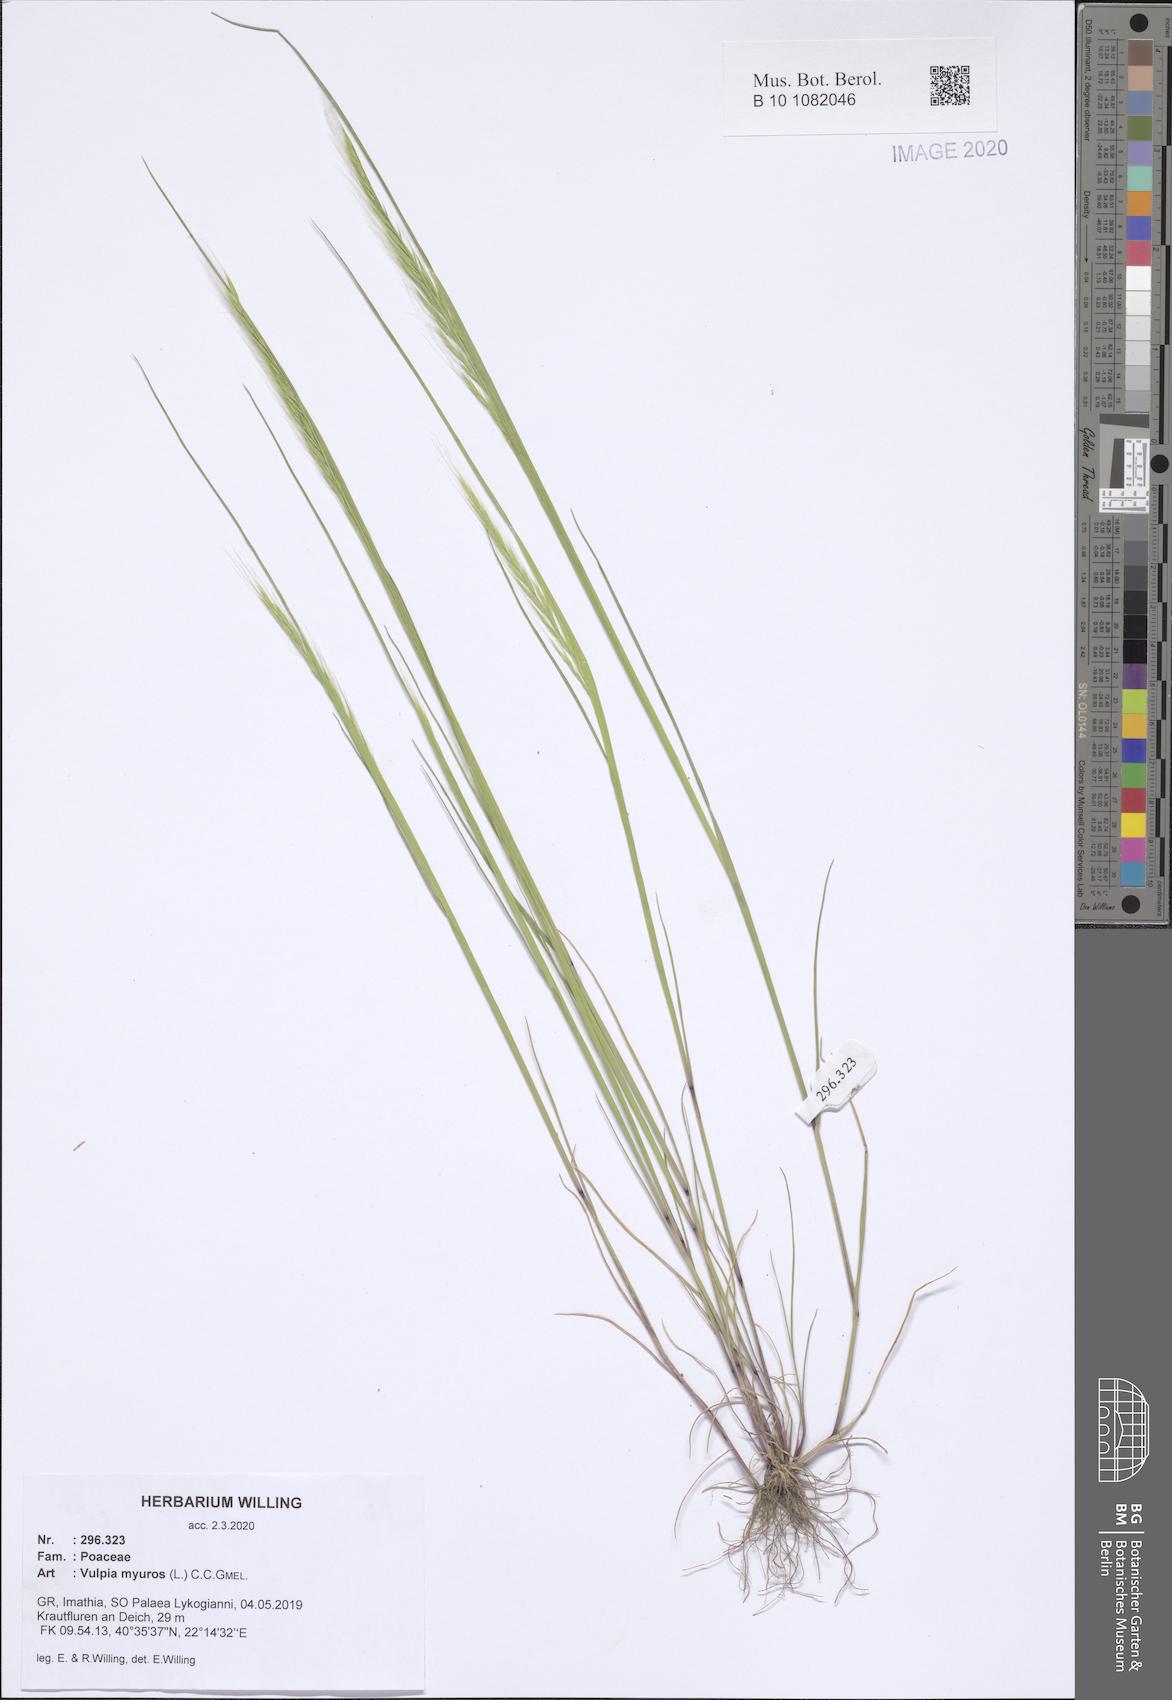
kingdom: Plantae
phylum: Tracheophyta
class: Liliopsida
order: Poales
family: Poaceae
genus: Festuca
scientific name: Festuca myuros
